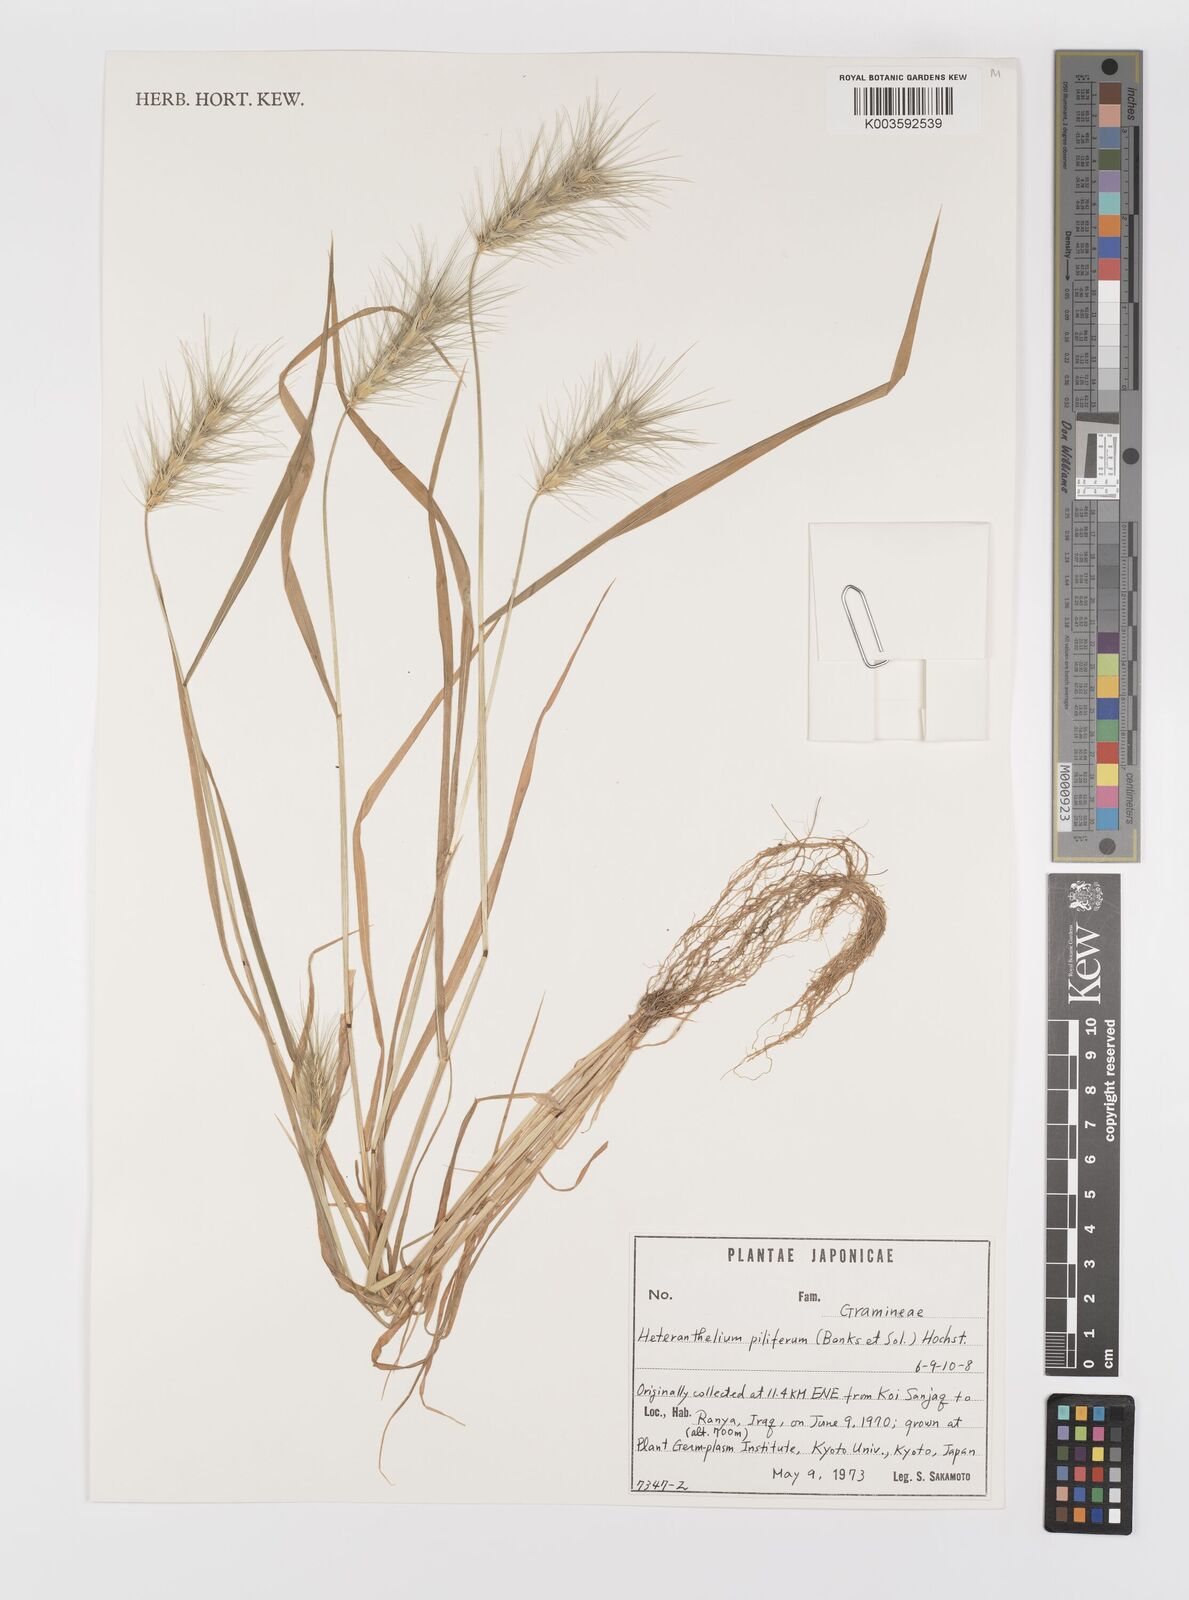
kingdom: Plantae
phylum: Tracheophyta
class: Liliopsida
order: Poales
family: Poaceae
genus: Heteranthelium
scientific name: Heteranthelium piliferum
